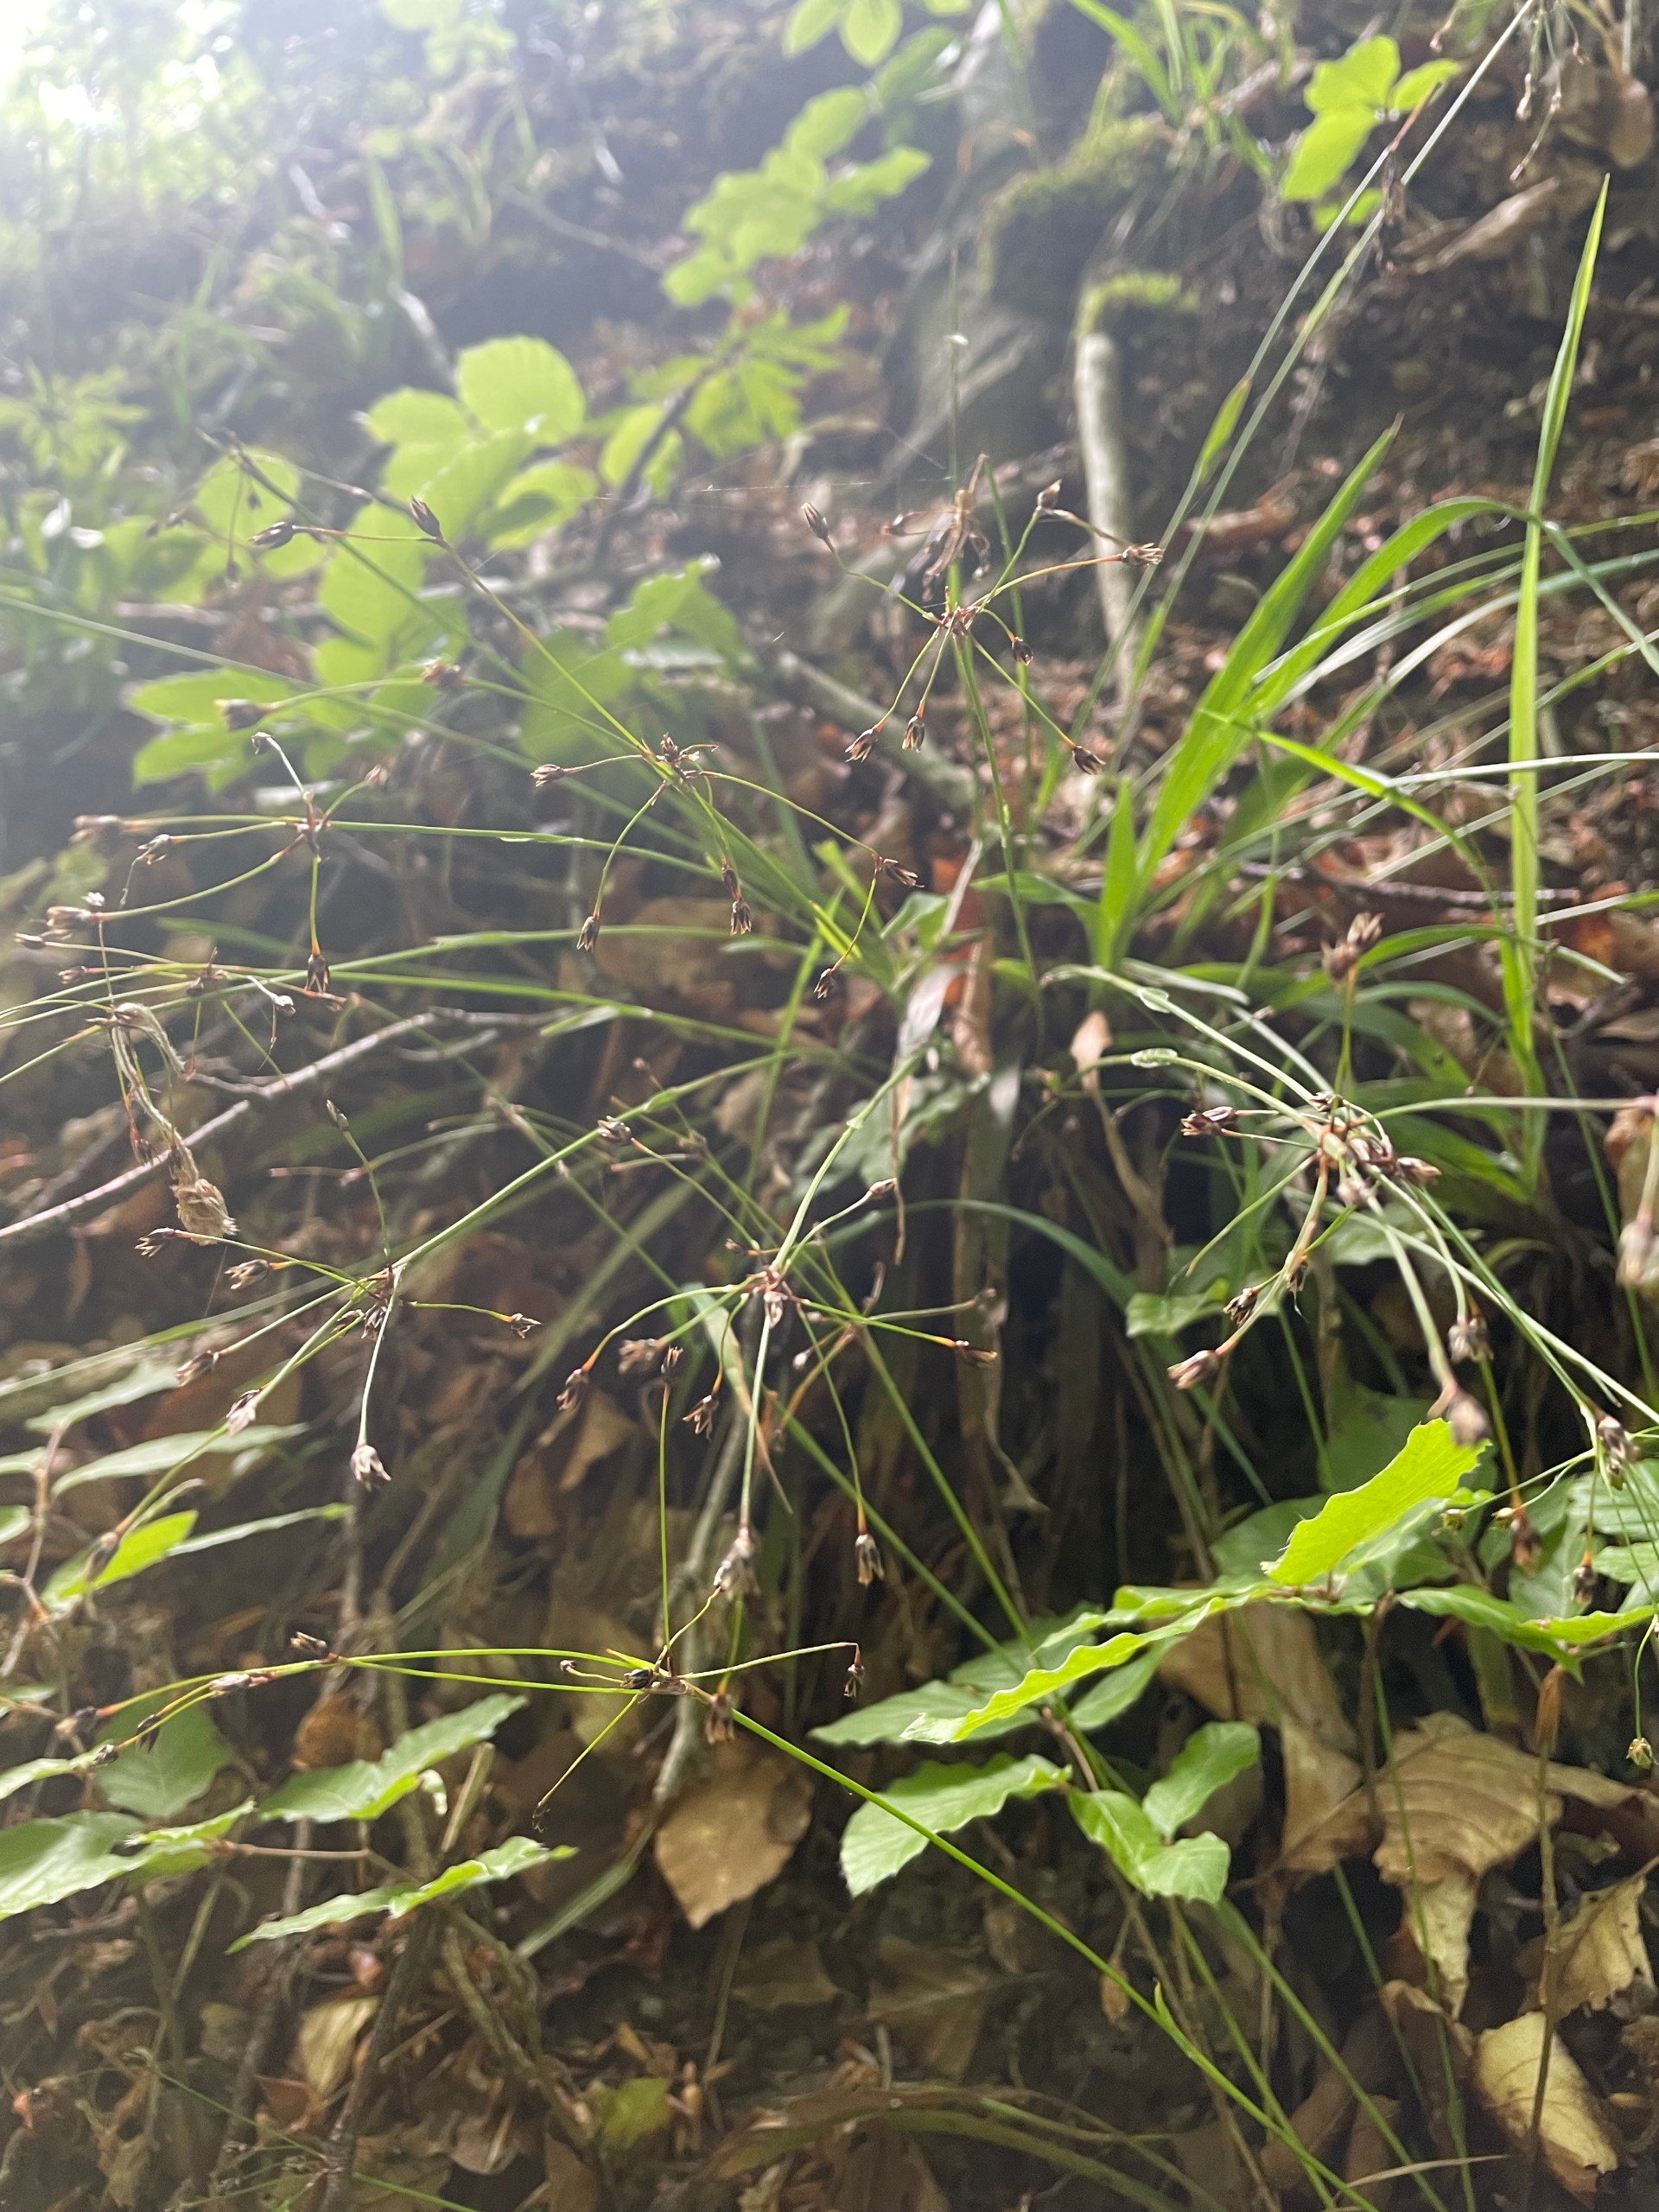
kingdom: Plantae
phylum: Tracheophyta
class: Liliopsida
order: Poales
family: Juncaceae
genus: Luzula
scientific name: Luzula pilosa
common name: Håret frytle
